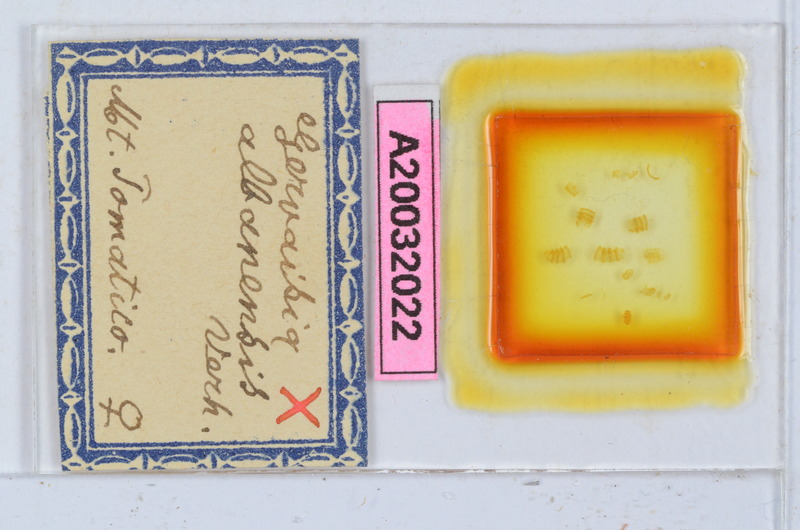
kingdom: Animalia
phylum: Arthropoda
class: Diplopoda
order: Glomerida
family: Glomeridae
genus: Trachysphaera
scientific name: Trachysphaera apenninorum
